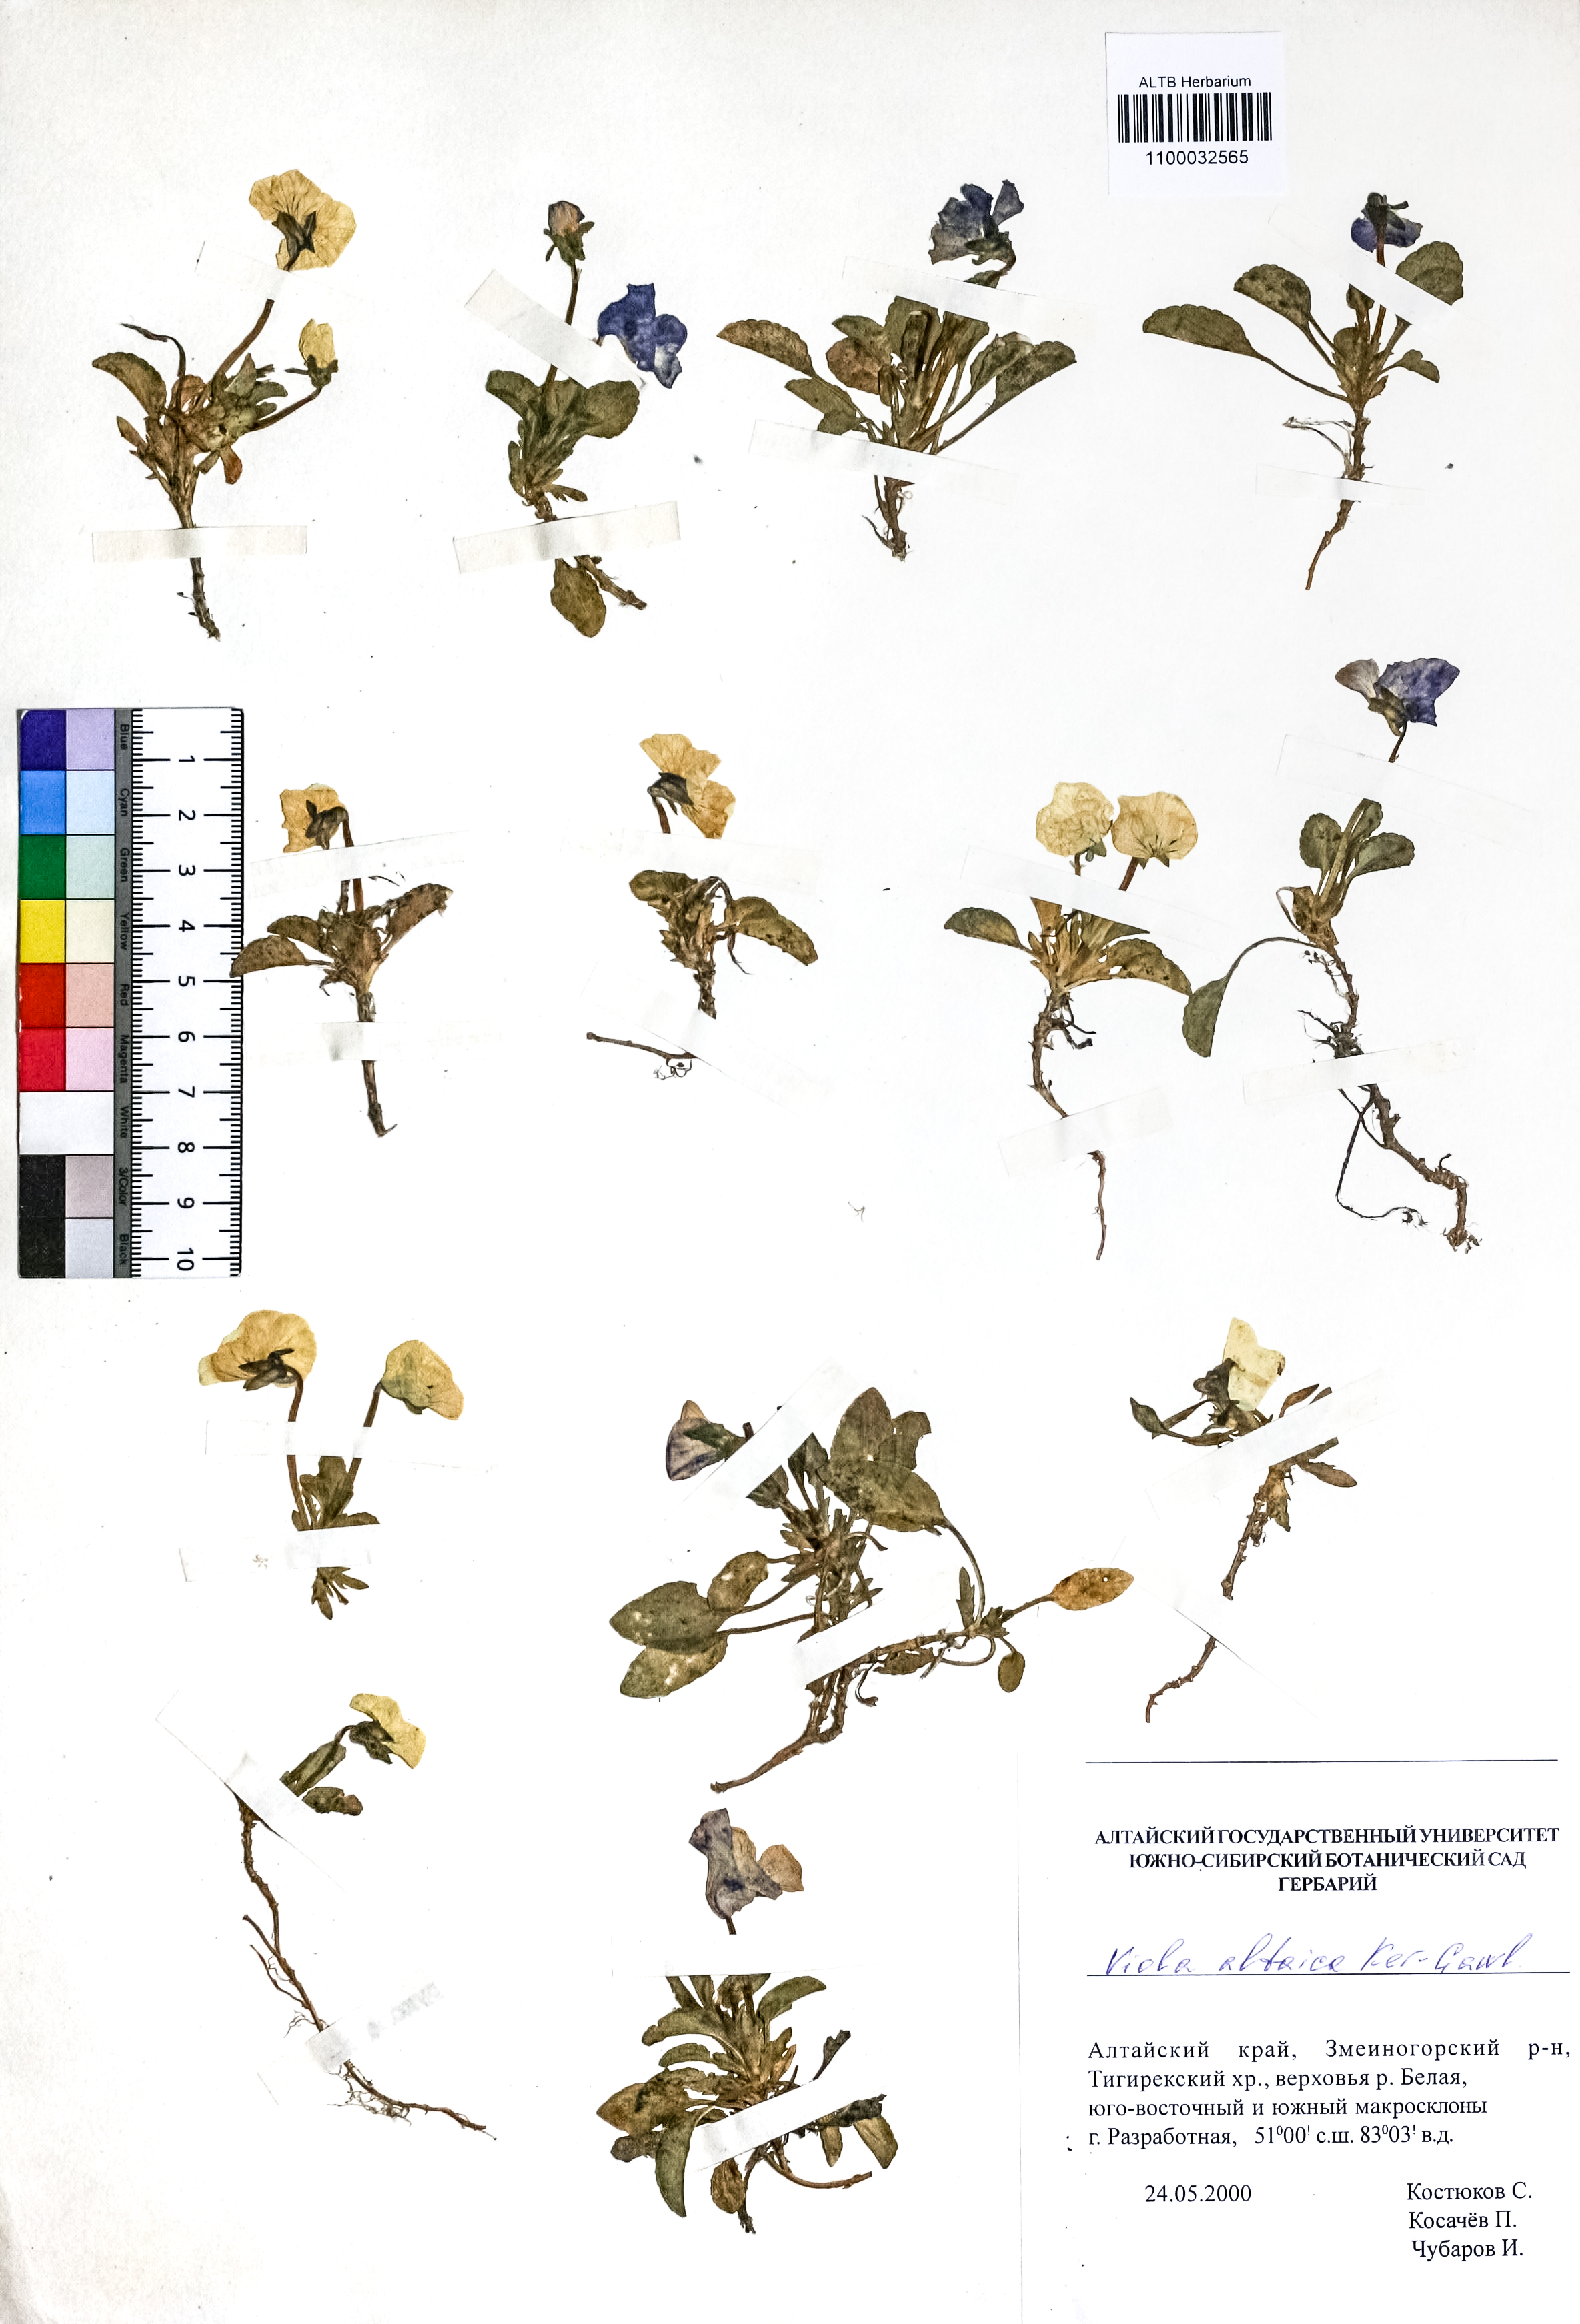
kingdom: Plantae
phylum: Tracheophyta
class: Magnoliopsida
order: Malpighiales
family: Violaceae
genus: Viola
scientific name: Viola altaica
